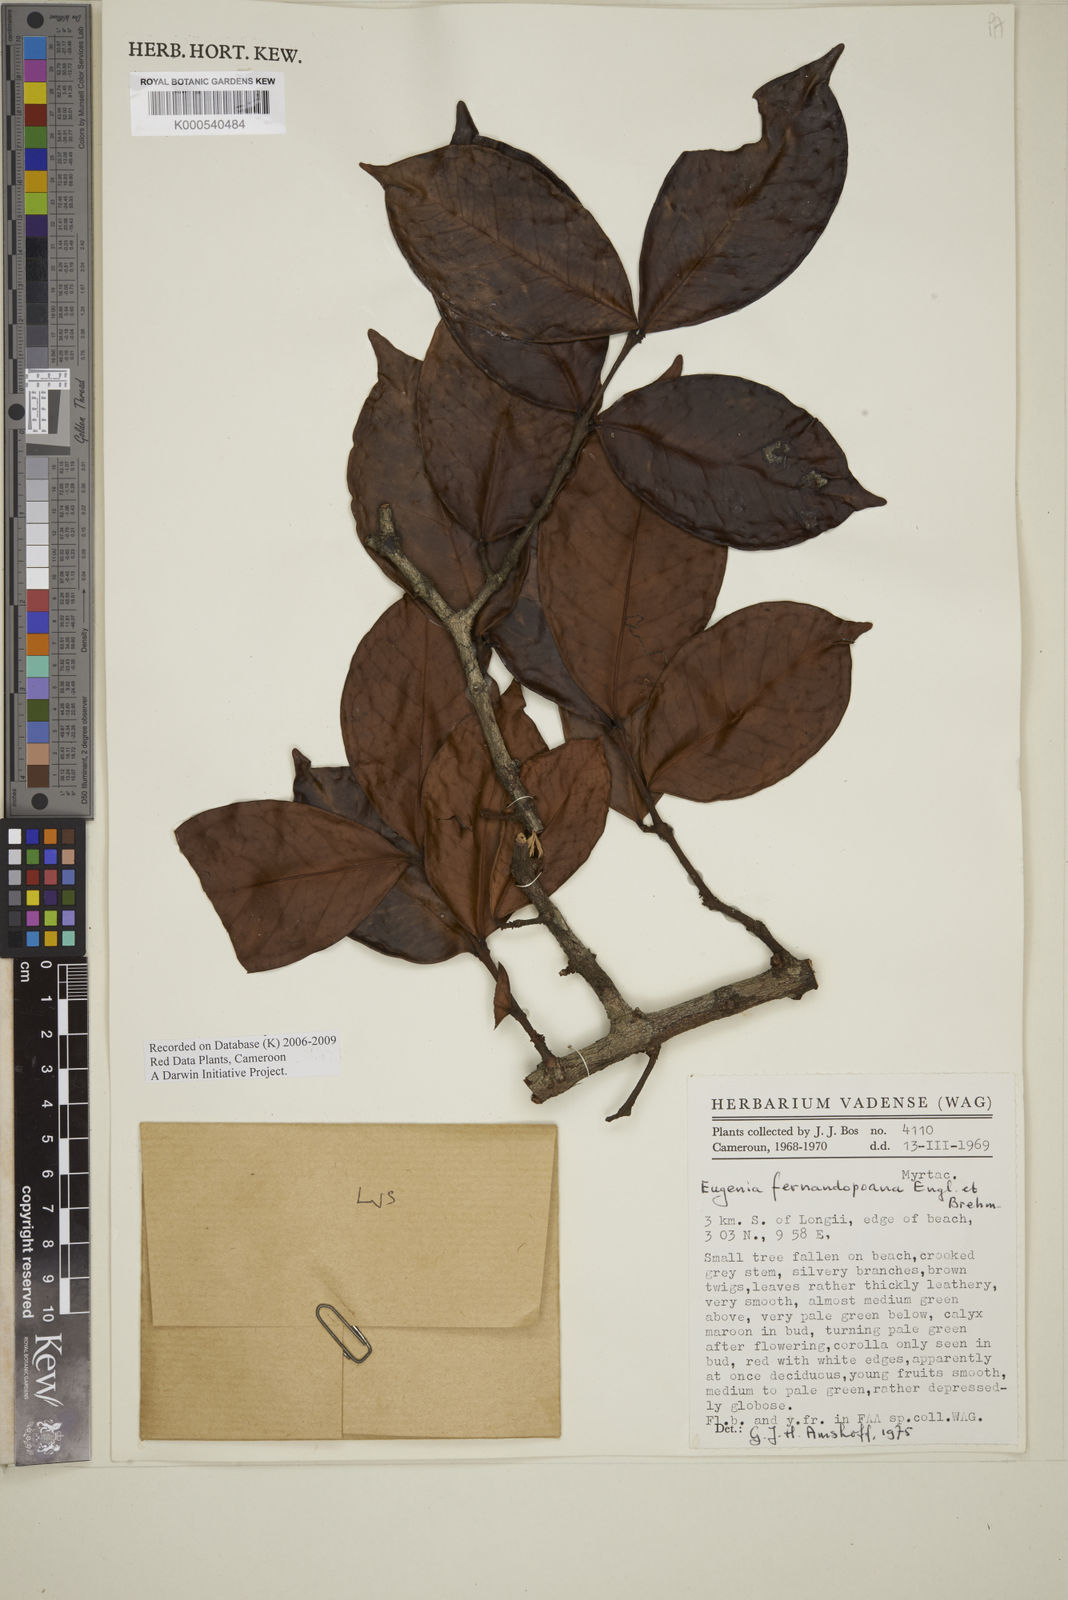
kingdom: Plantae
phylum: Tracheophyta
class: Magnoliopsida
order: Myrtales
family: Myrtaceae
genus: Eugenia
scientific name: Eugenia fernandopoana
